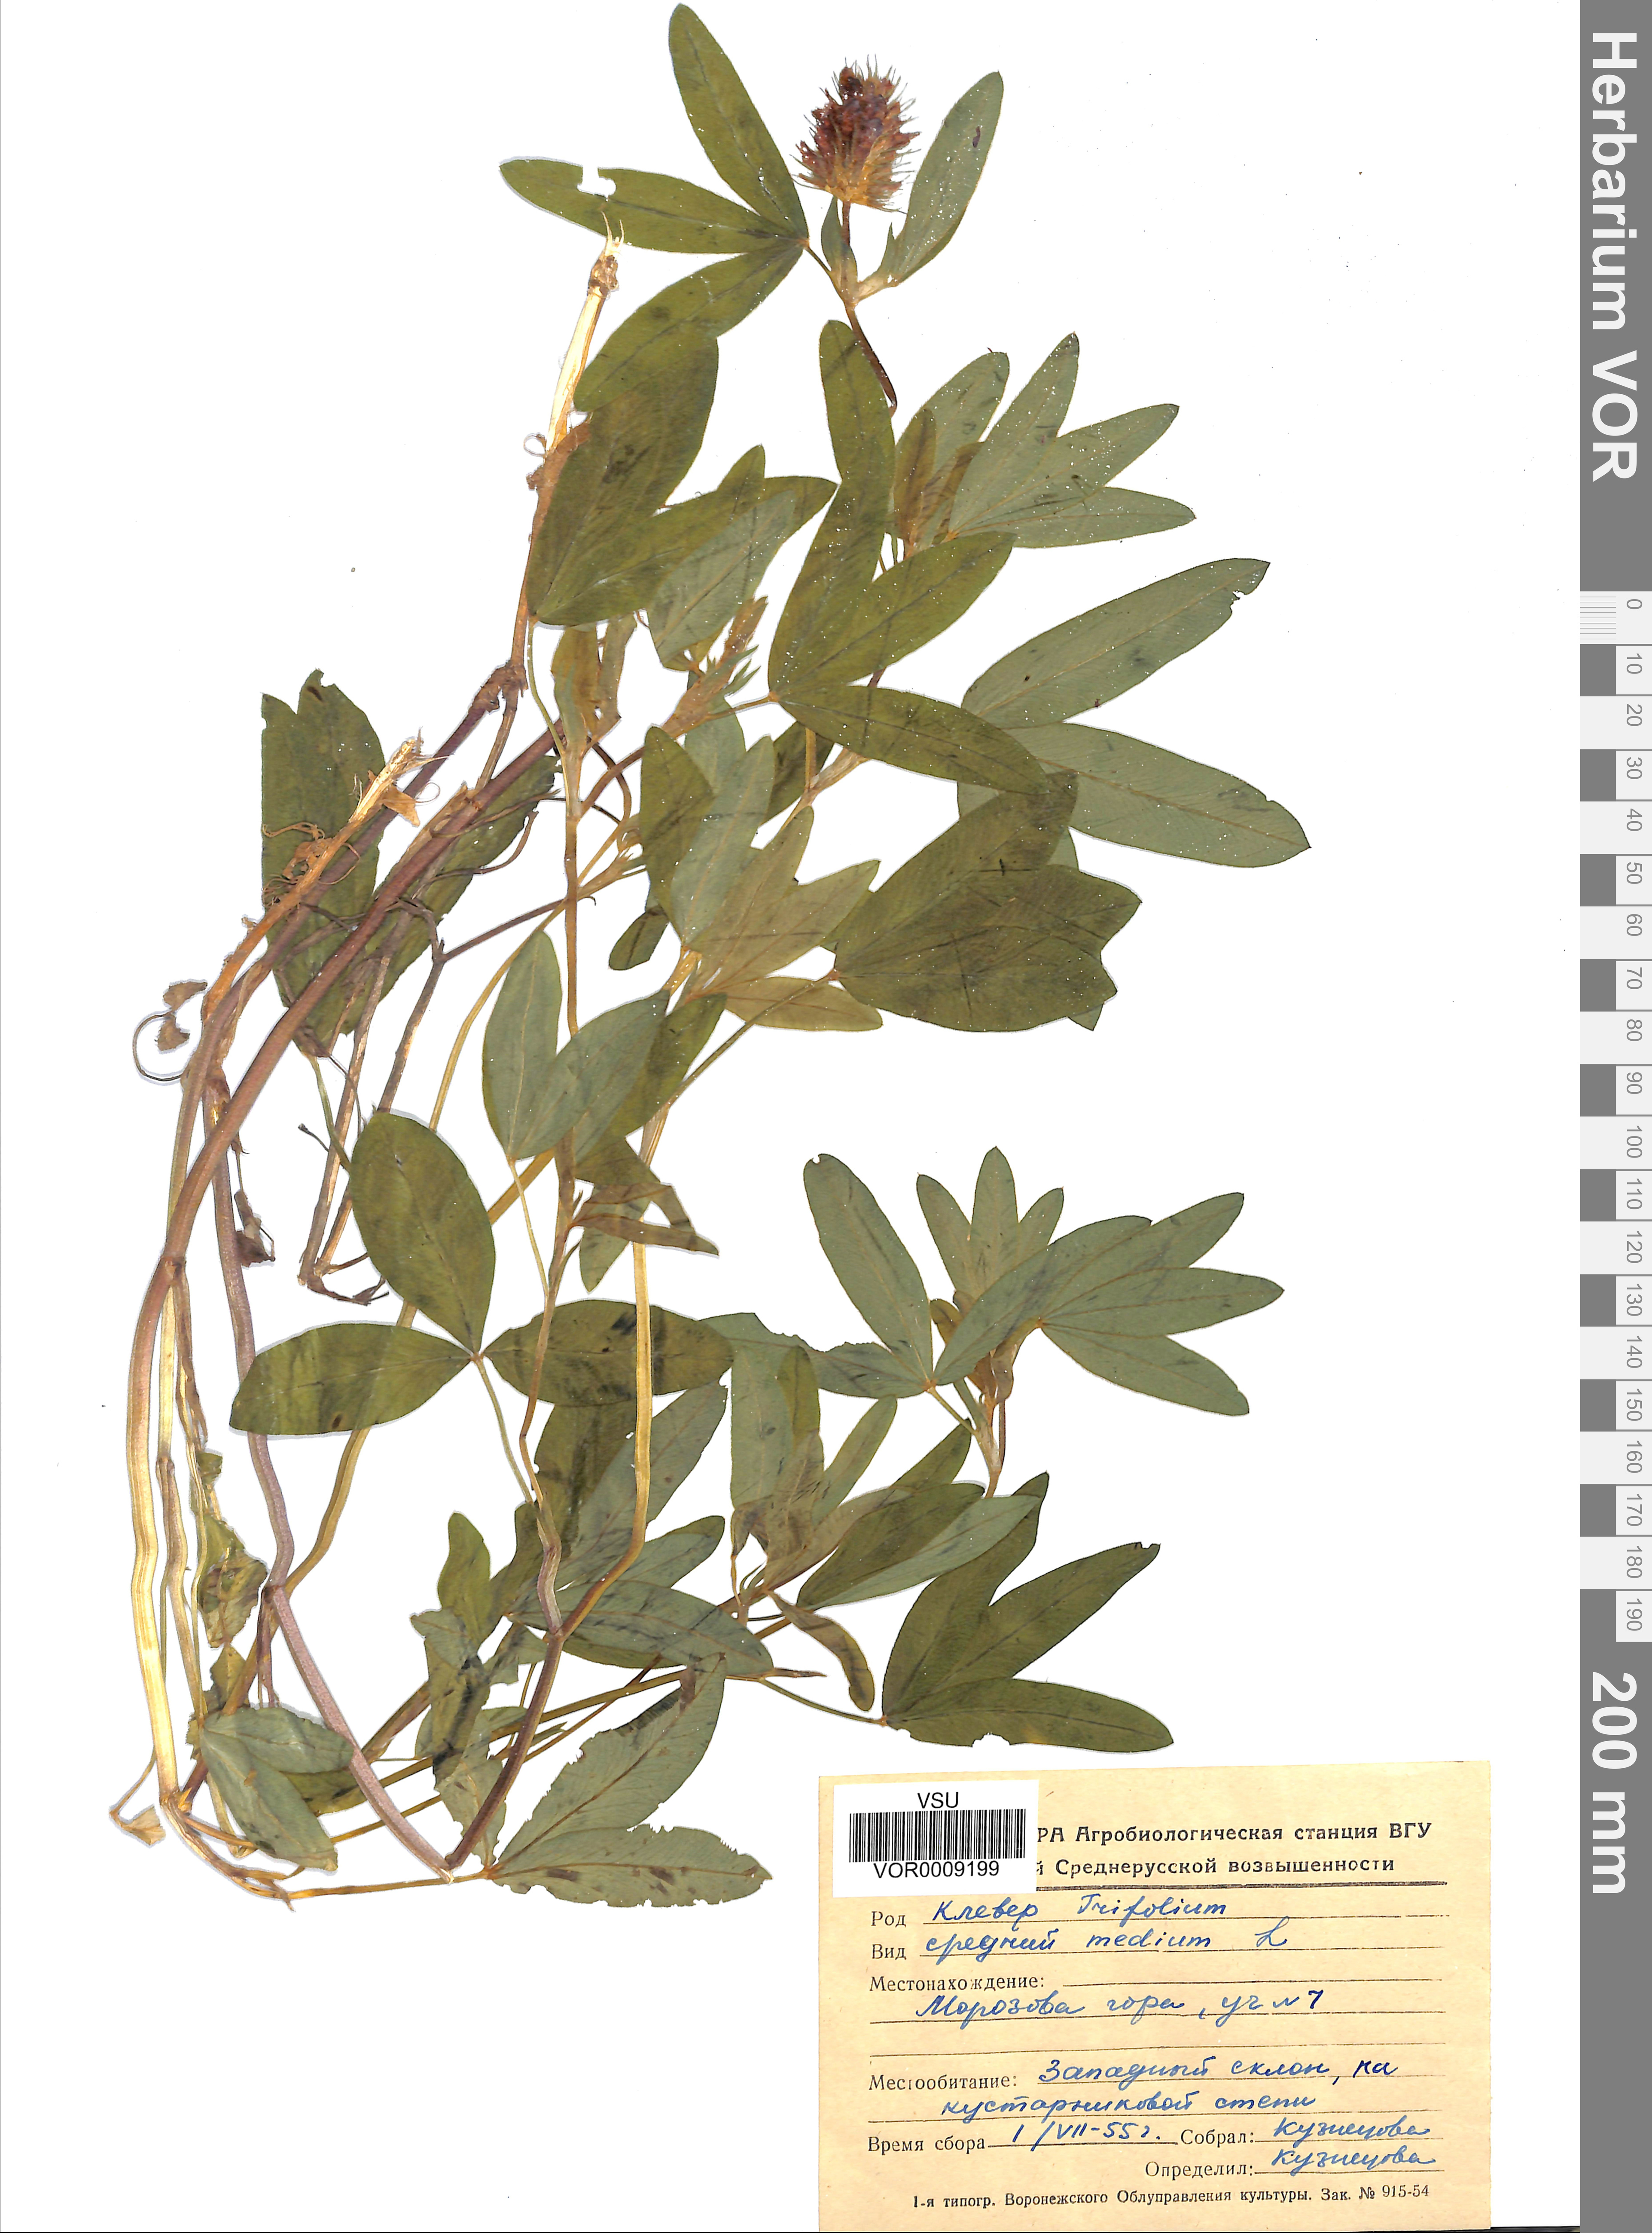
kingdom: Plantae
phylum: Tracheophyta
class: Magnoliopsida
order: Fabales
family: Fabaceae
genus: Trifolium
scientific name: Trifolium medium
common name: Zigzag clover
